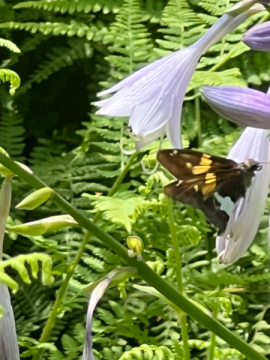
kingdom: Animalia
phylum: Arthropoda
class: Insecta
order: Lepidoptera
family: Hesperiidae
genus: Epargyreus
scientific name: Epargyreus clarus
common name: Silver-spotted Skipper
